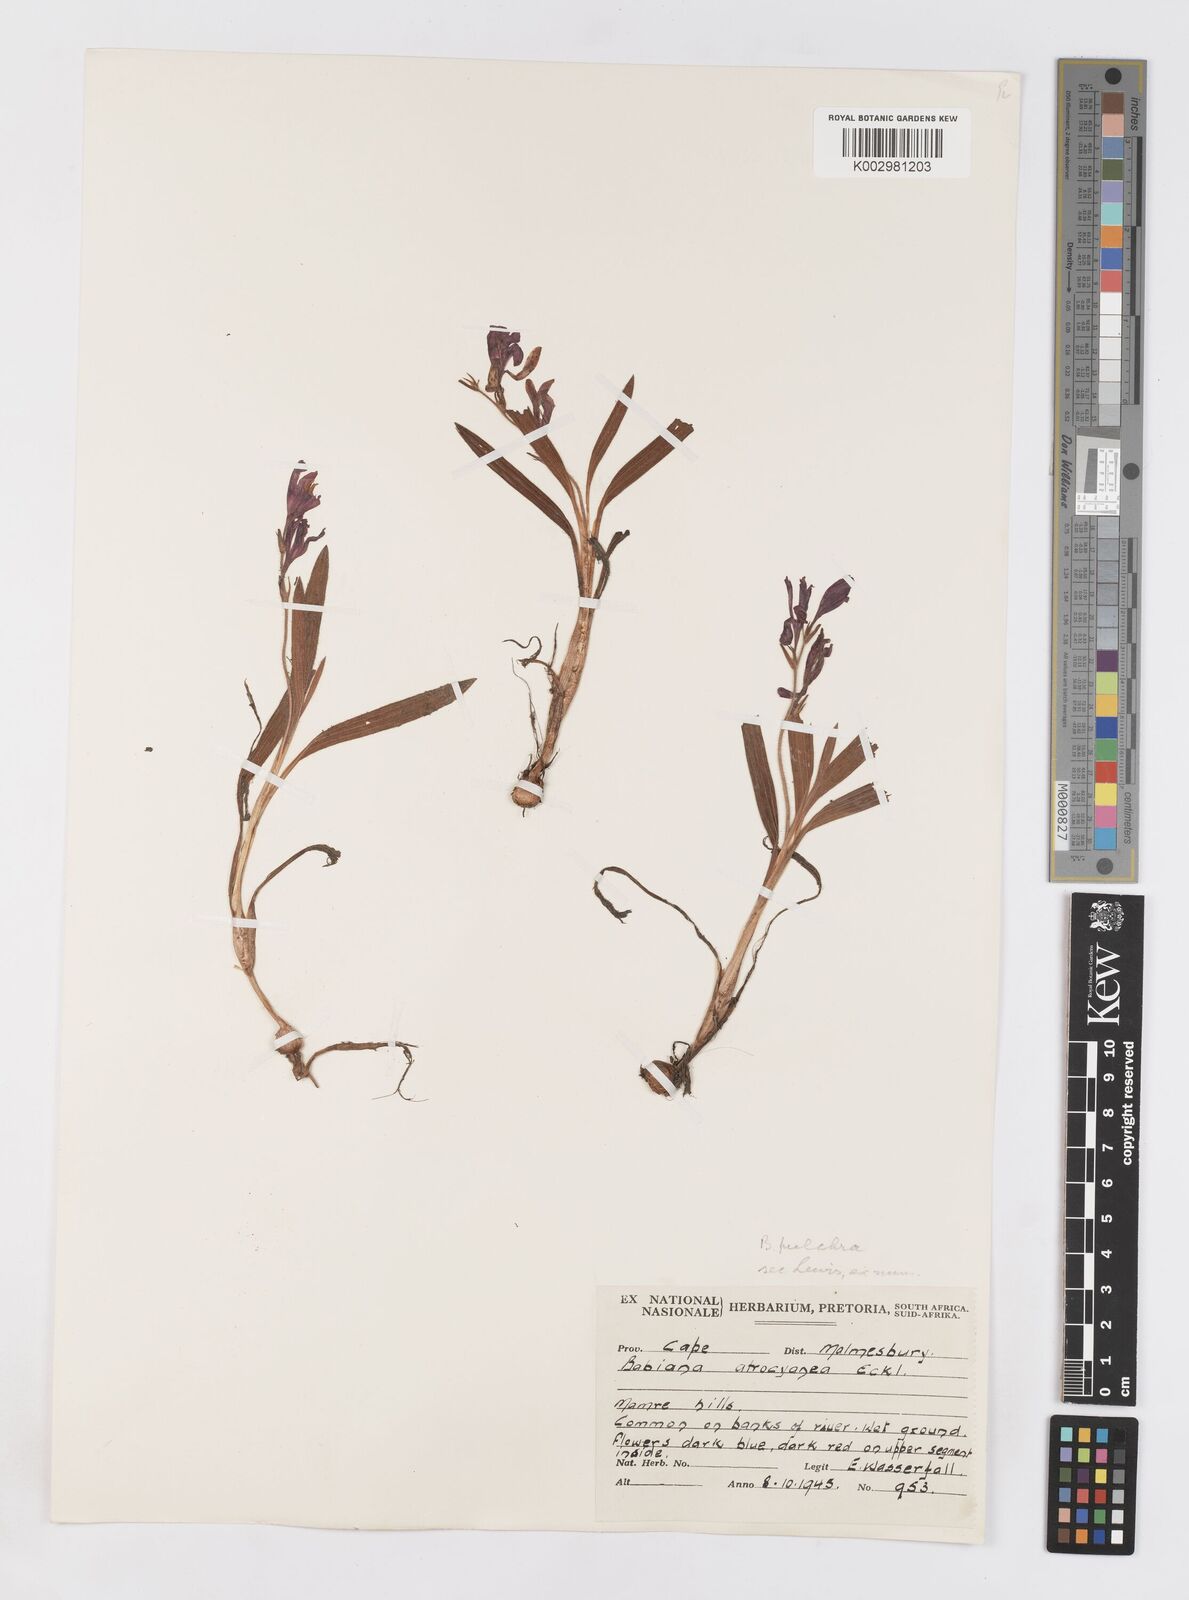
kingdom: Plantae
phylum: Tracheophyta
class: Liliopsida
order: Asparagales
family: Iridaceae
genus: Babiana
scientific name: Babiana angustifolia
